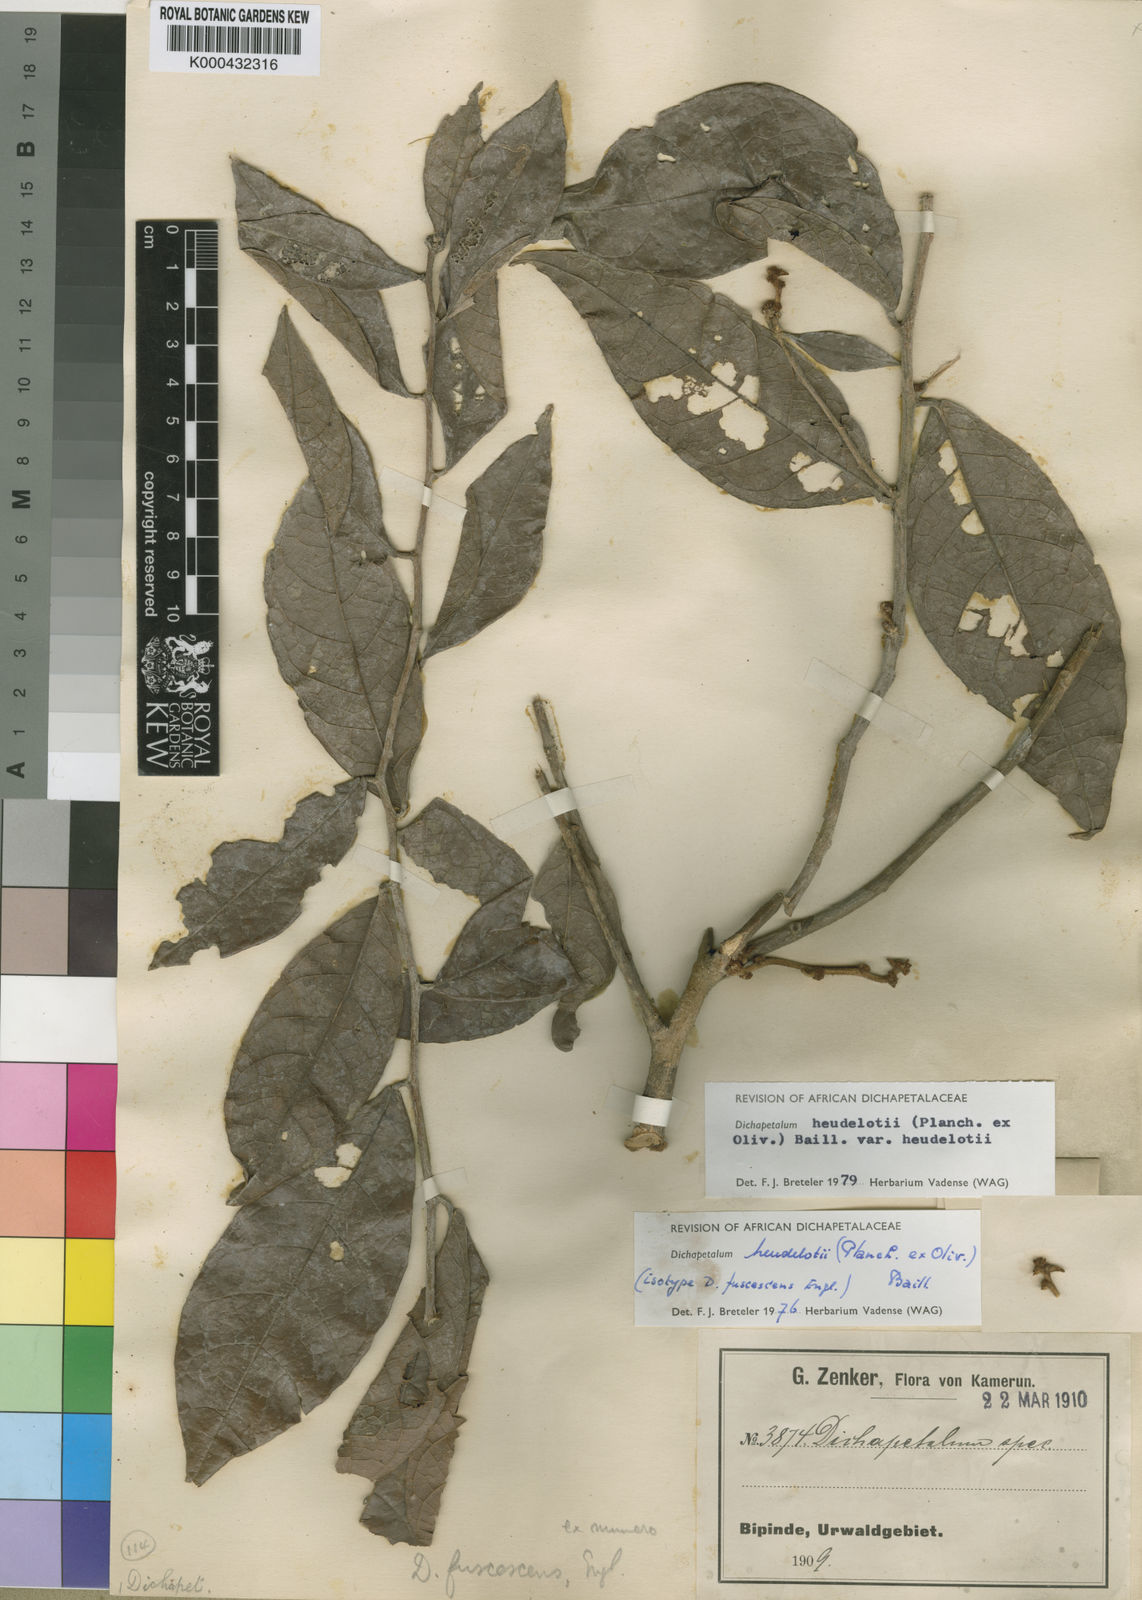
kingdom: Plantae
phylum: Tracheophyta
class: Magnoliopsida
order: Malpighiales
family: Dichapetalaceae
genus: Dichapetalum
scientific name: Dichapetalum heudelotii
